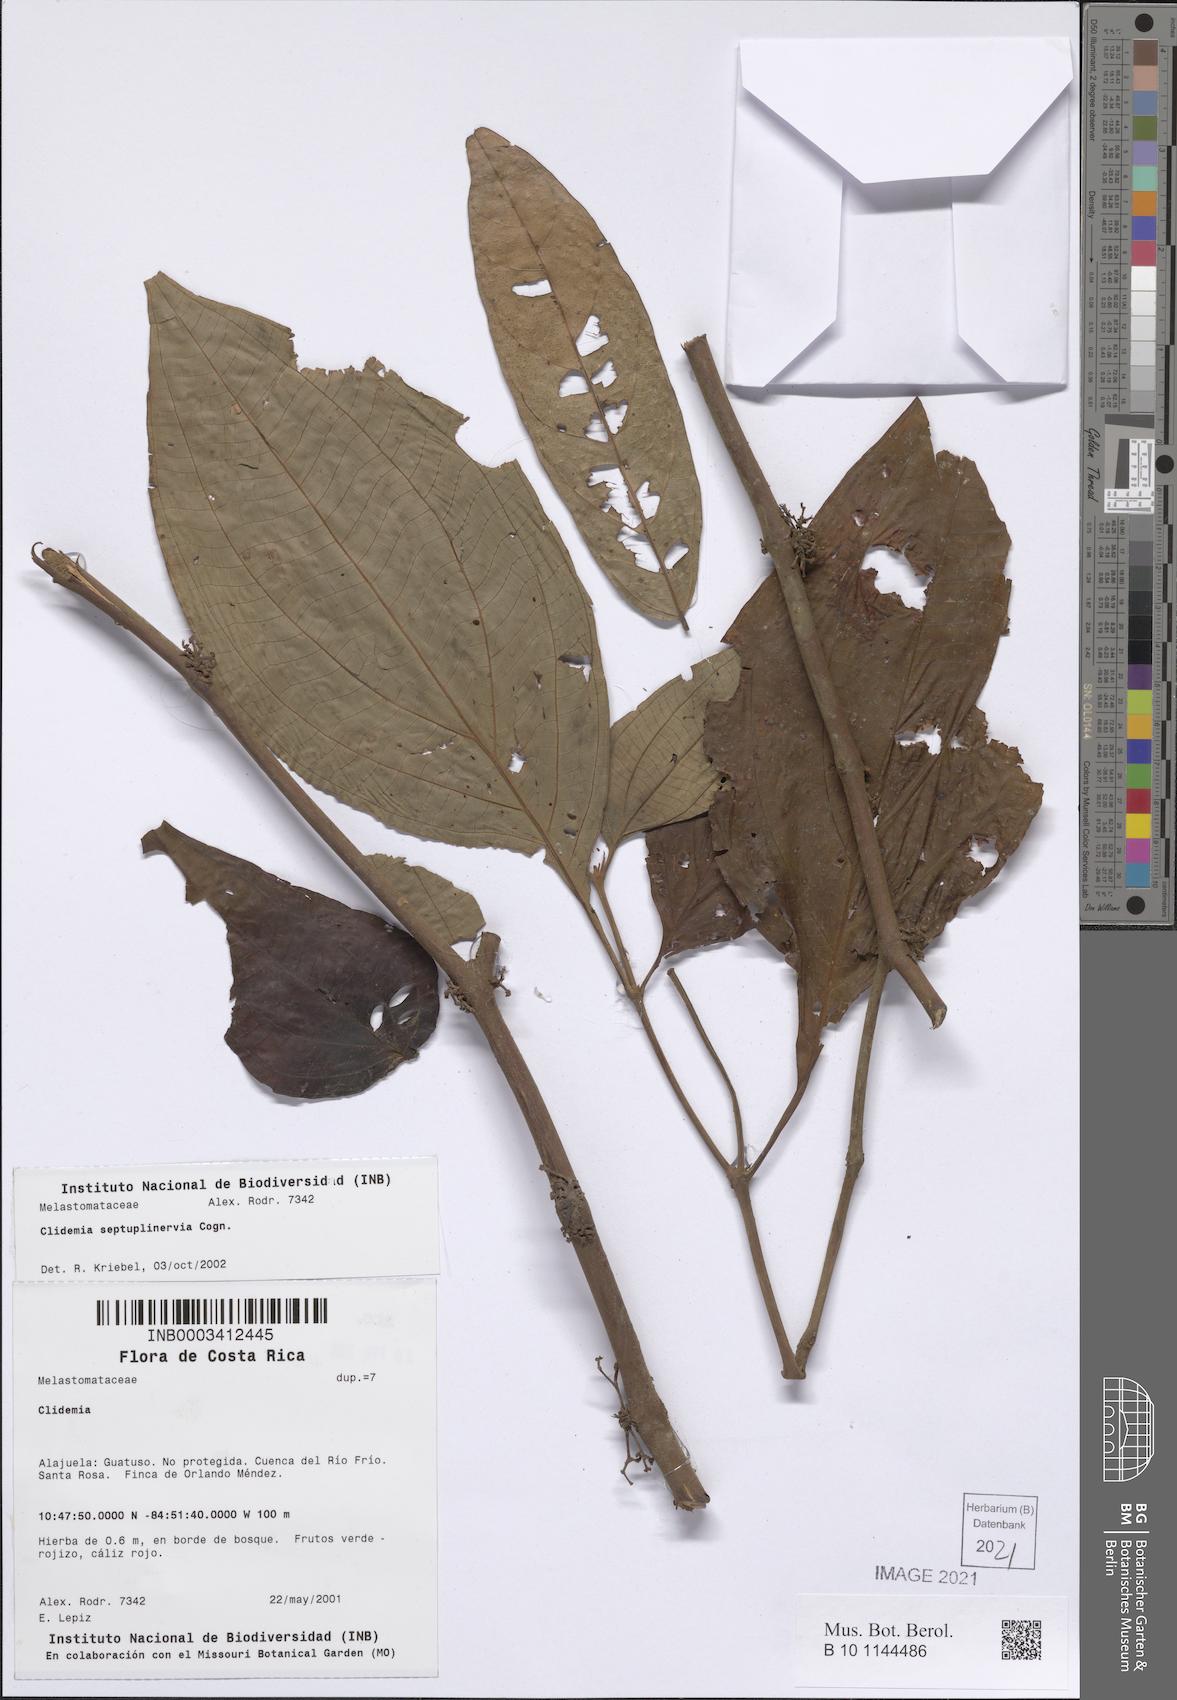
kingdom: Plantae
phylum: Tracheophyta
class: Magnoliopsida
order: Myrtales
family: Melastomataceae
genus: Miconia
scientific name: Miconia trichocalyx
